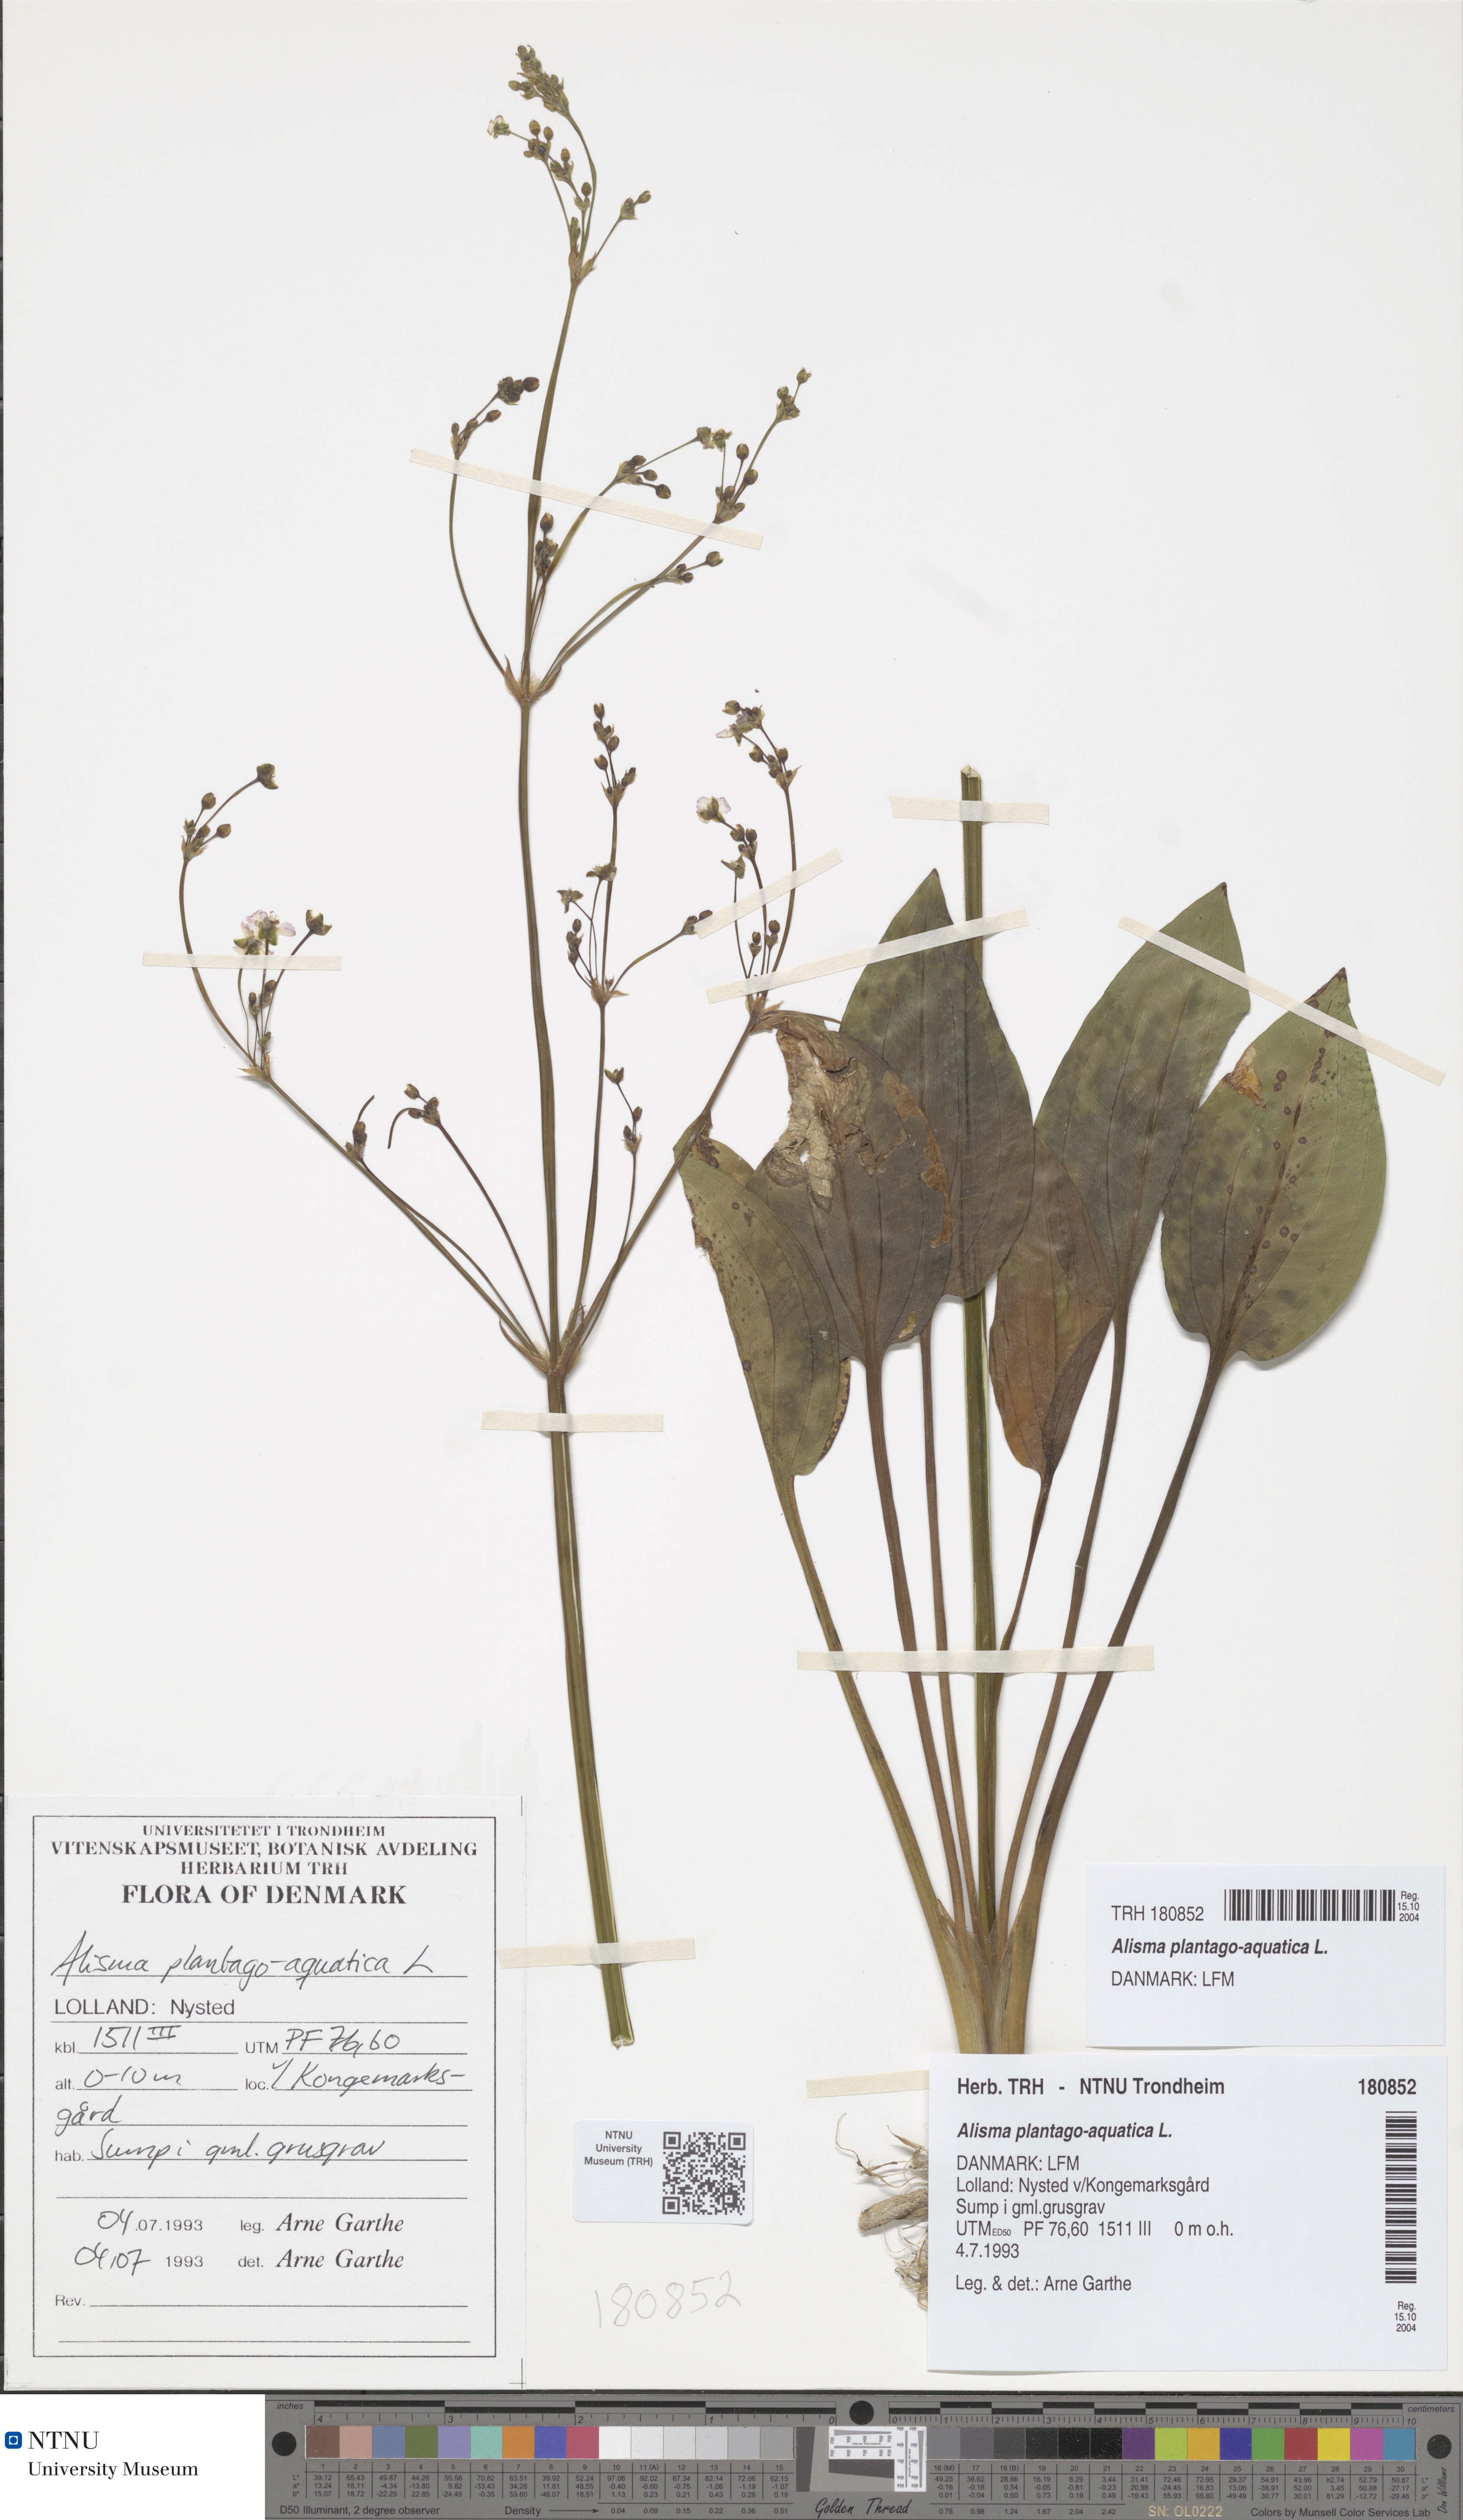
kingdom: Plantae
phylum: Tracheophyta
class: Liliopsida
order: Alismatales
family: Alismataceae
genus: Alisma
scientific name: Alisma plantago-aquatica
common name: Water-plantain
